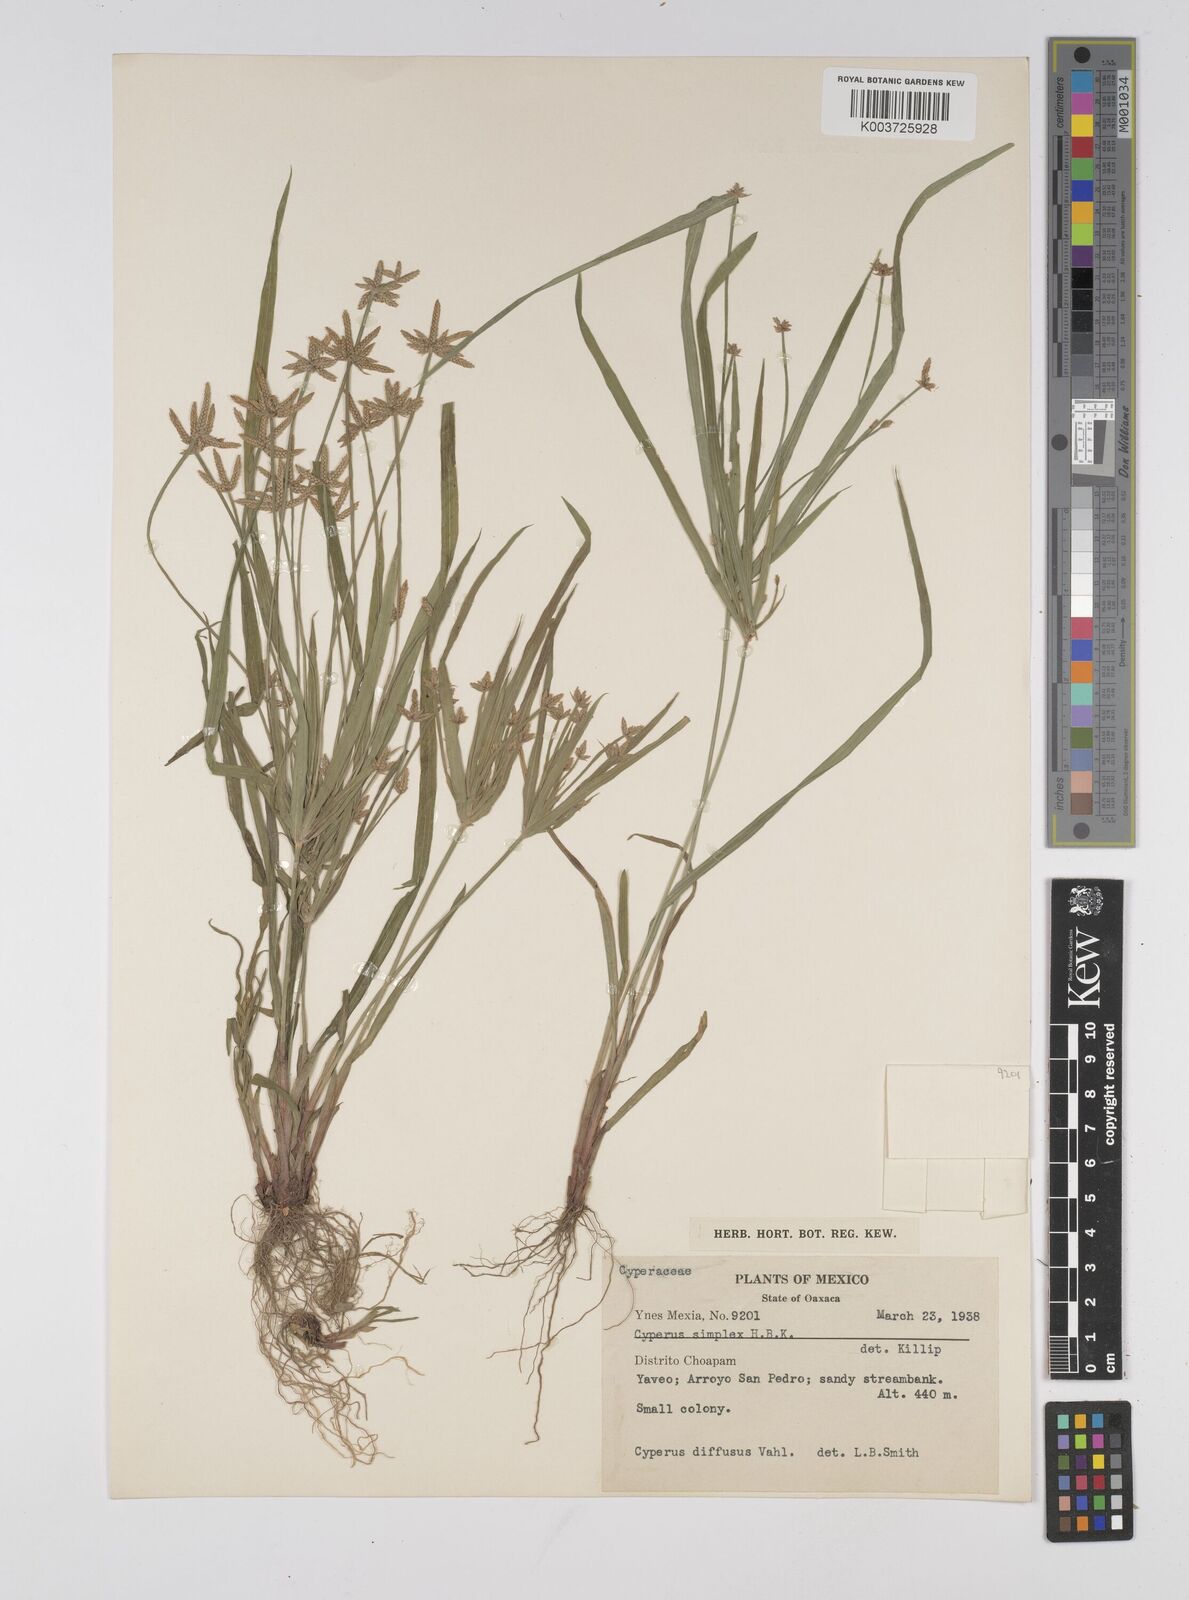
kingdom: Plantae
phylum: Tracheophyta
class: Liliopsida
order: Poales
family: Cyperaceae
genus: Cyperus
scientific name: Cyperus simplex
